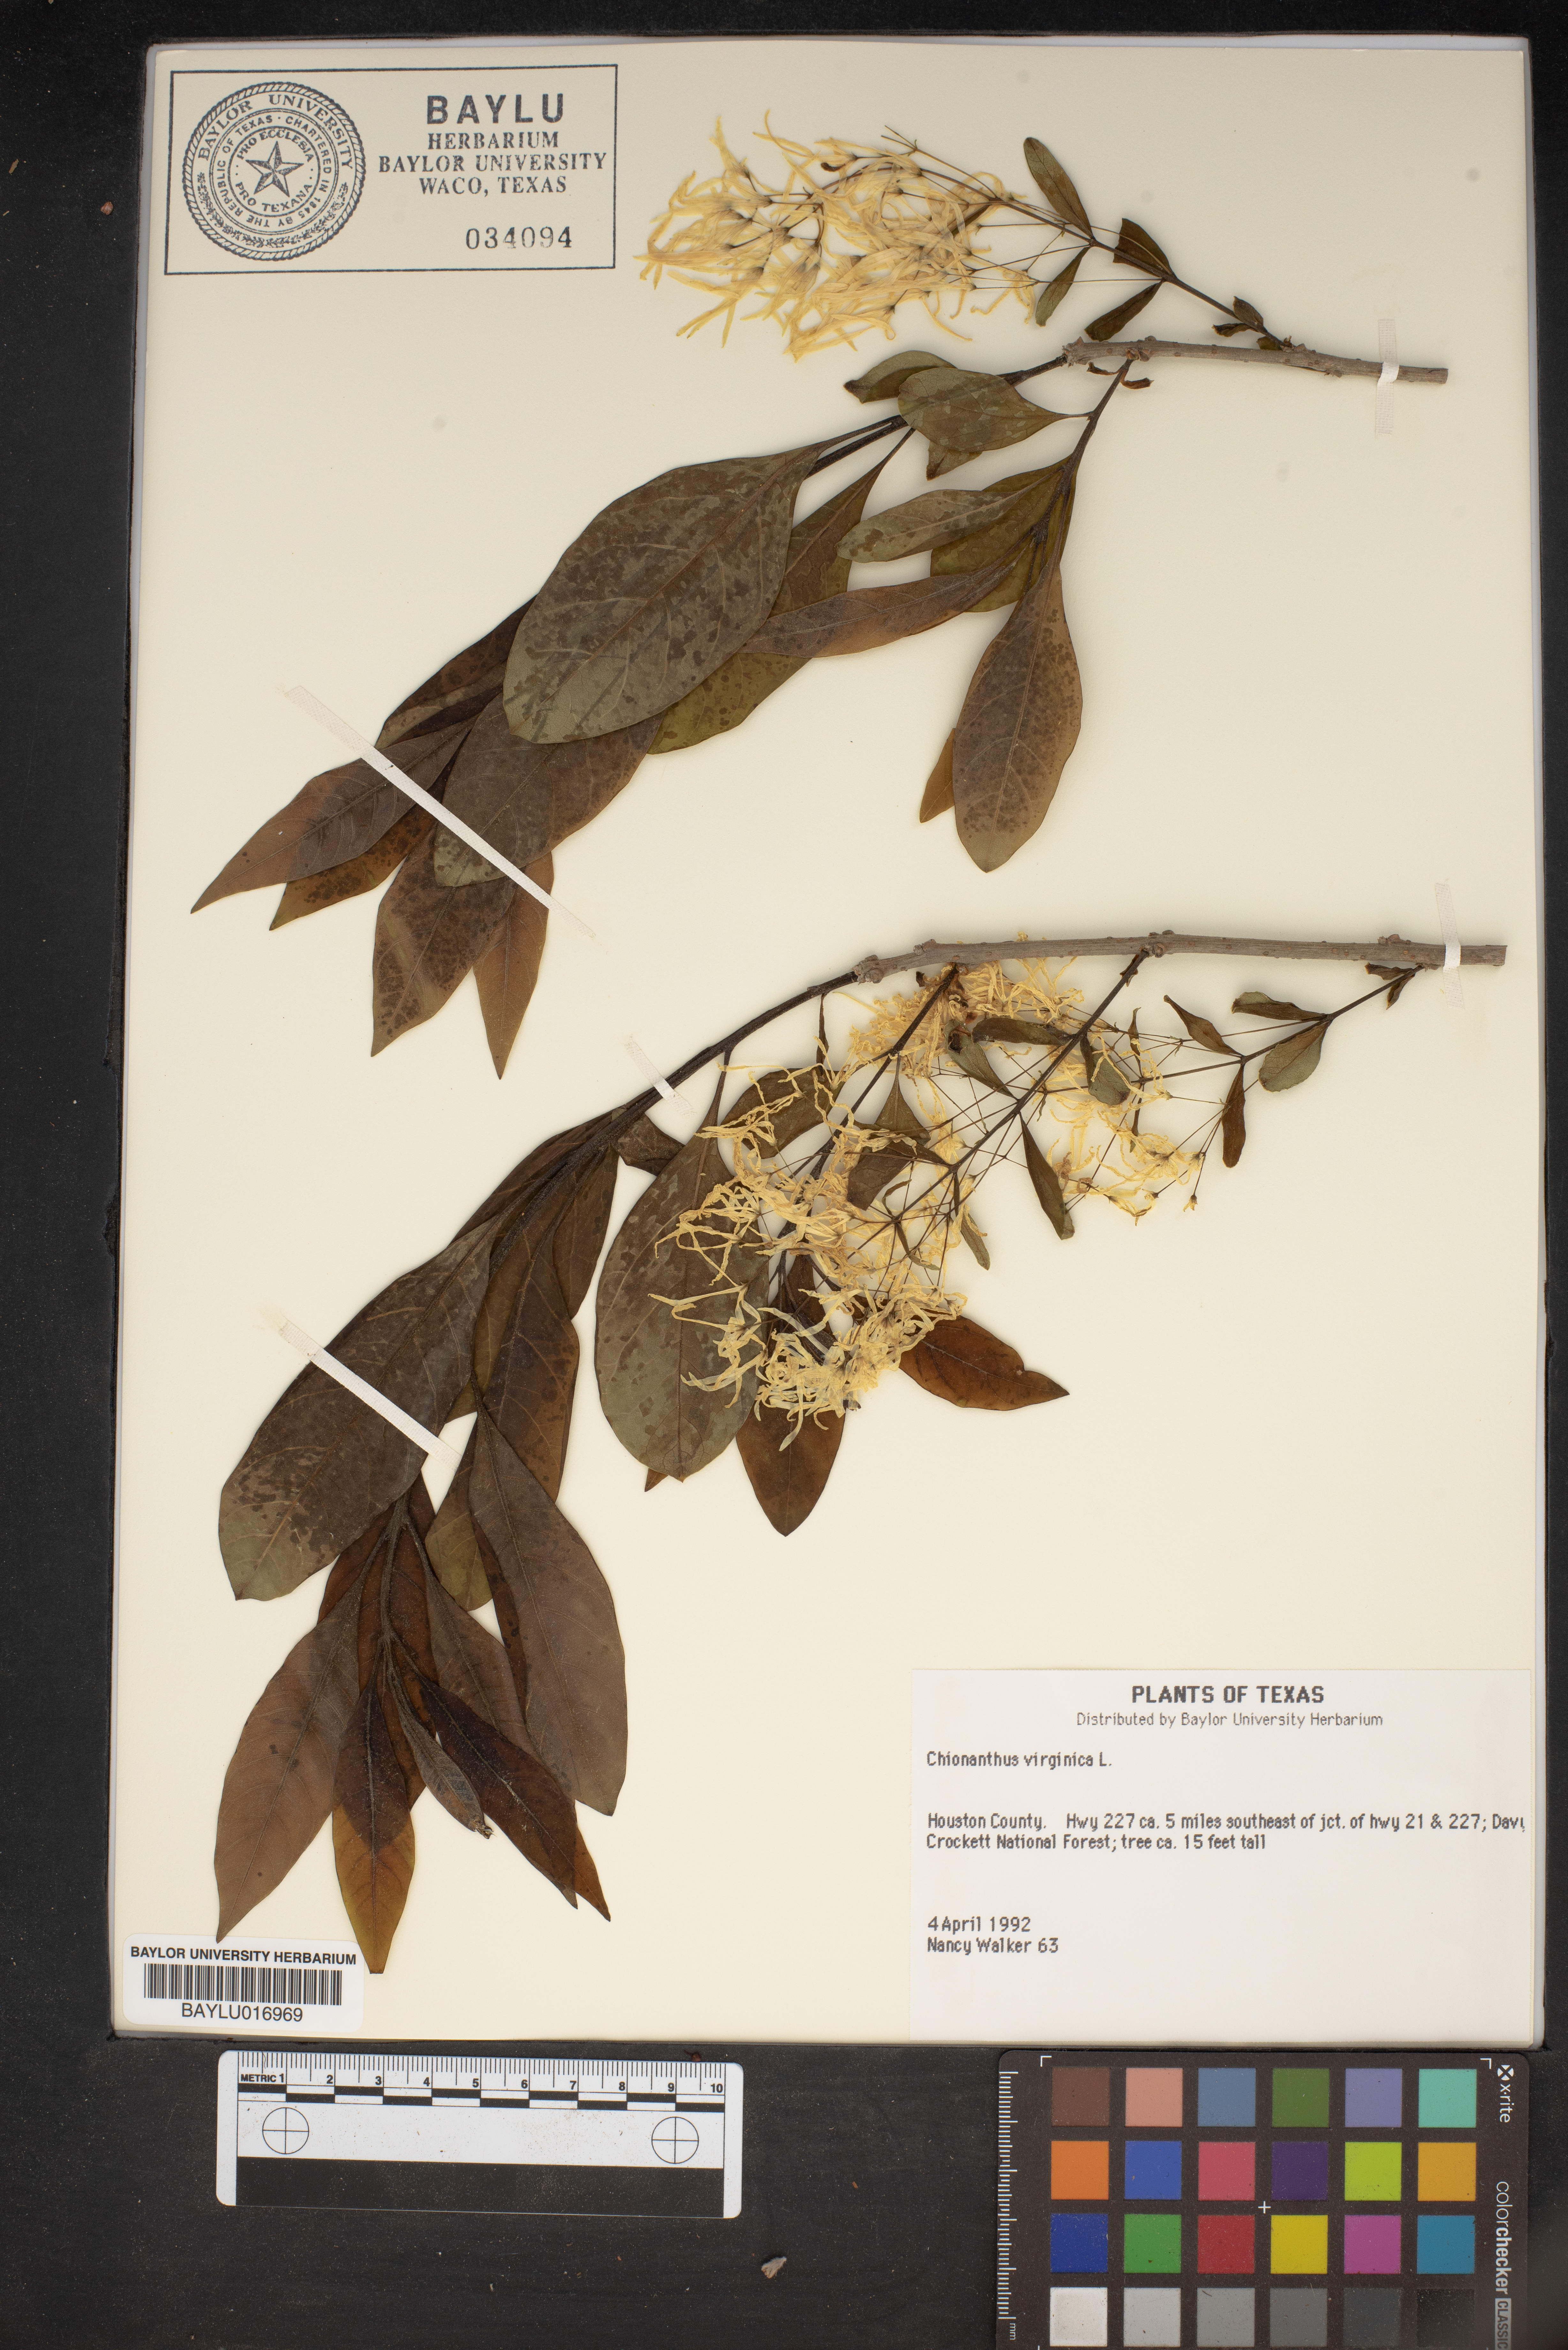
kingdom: Plantae
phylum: Tracheophyta
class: Magnoliopsida
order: Lamiales
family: Oleaceae
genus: Chionanthus
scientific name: Chionanthus virginicus
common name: American fringetree
